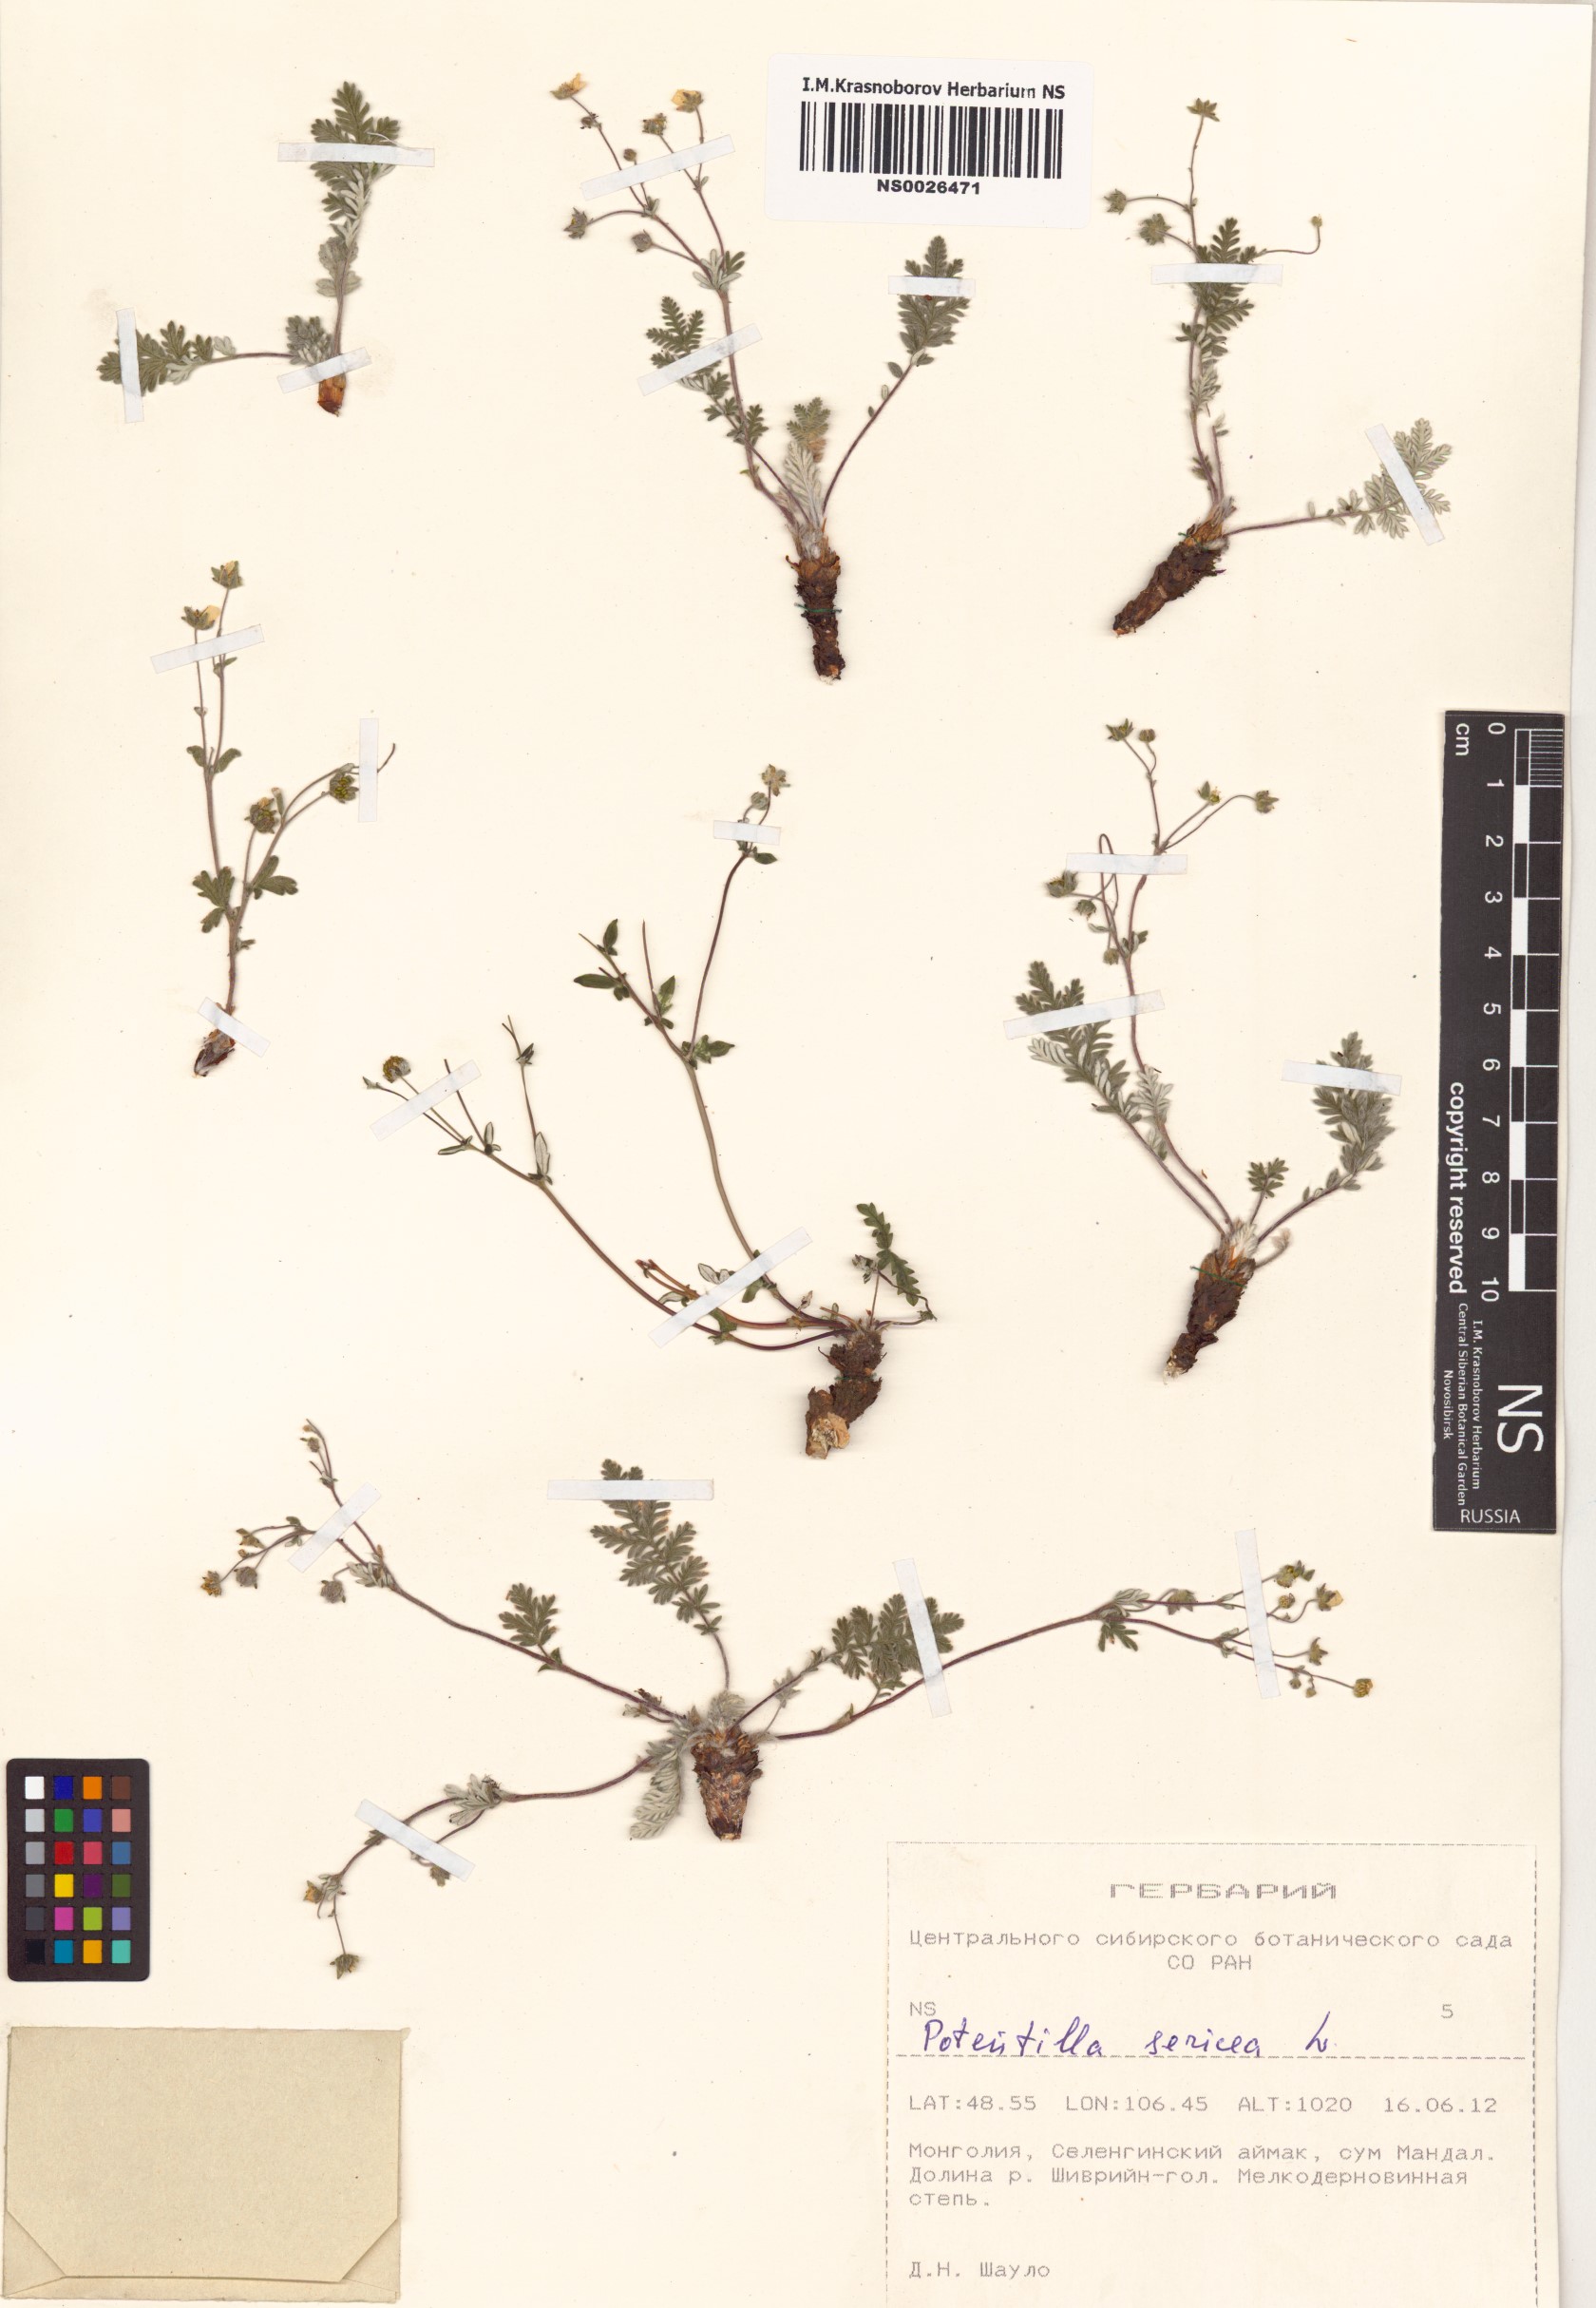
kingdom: Plantae
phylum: Tracheophyta
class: Magnoliopsida
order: Rosales
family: Rosaceae
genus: Potentilla
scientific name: Potentilla sericea
